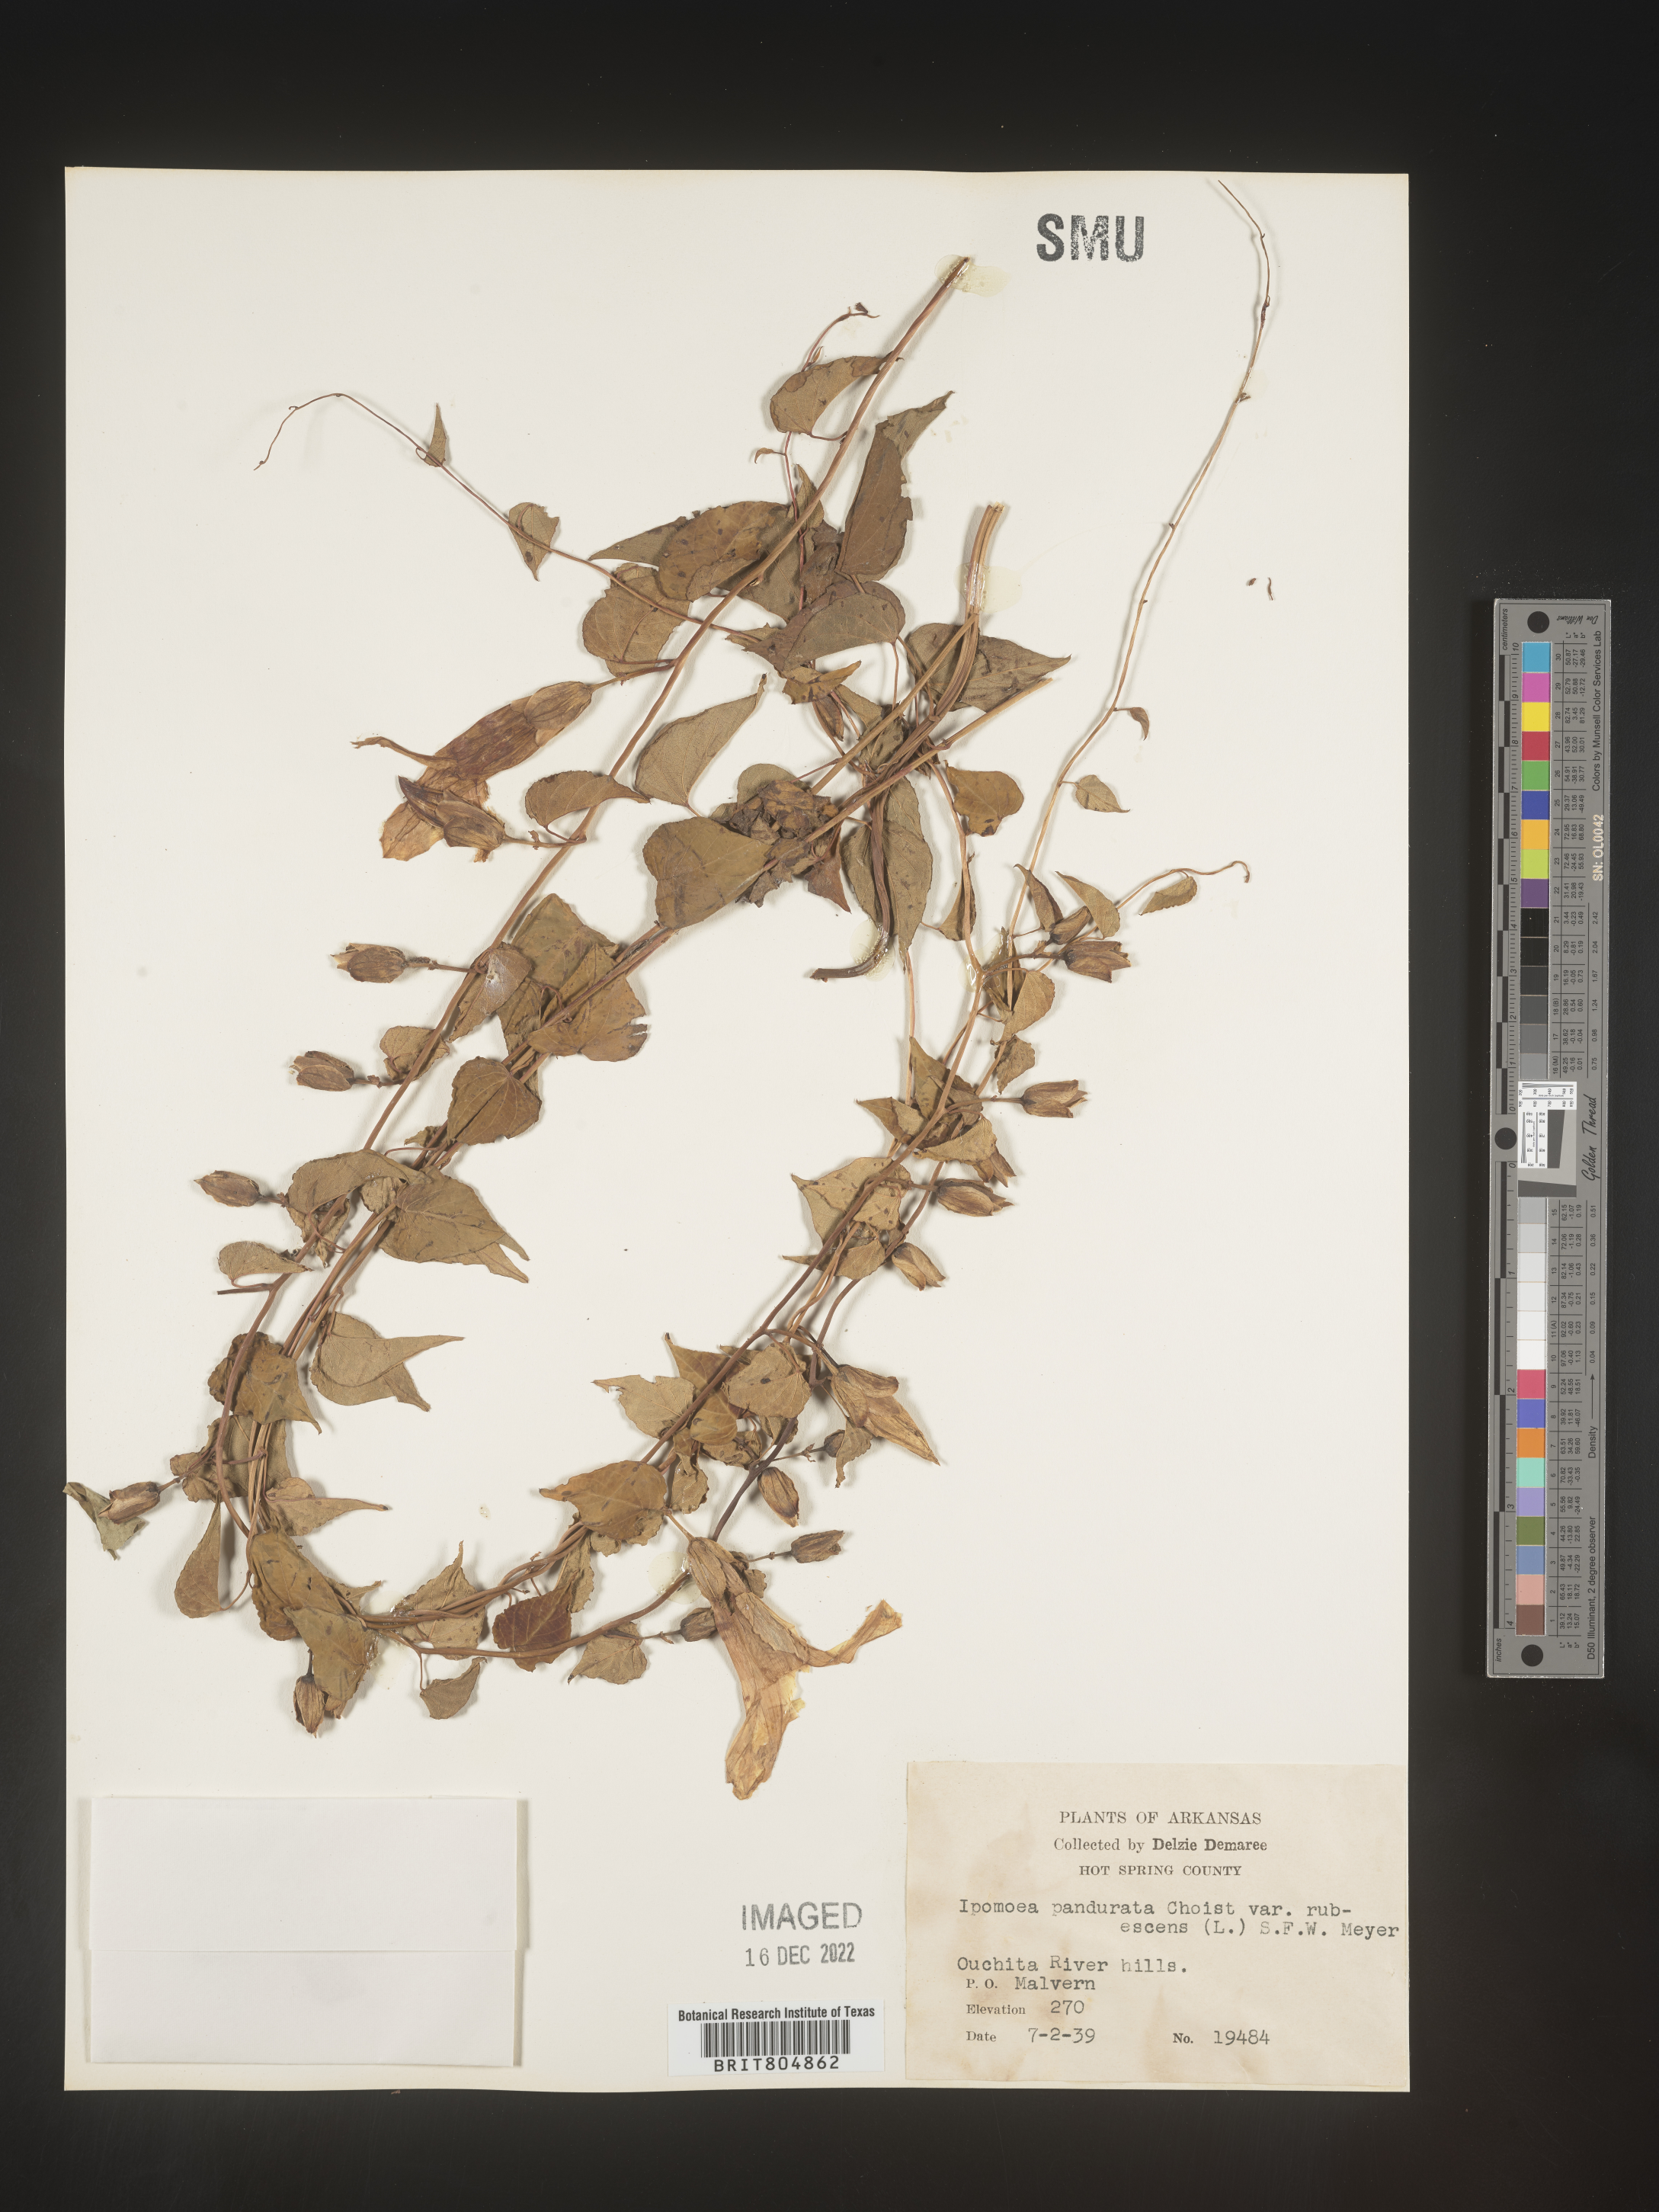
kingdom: Plantae
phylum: Tracheophyta
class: Magnoliopsida
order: Solanales
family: Convolvulaceae
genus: Ipomoea
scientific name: Ipomoea pandurata
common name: Man-of-the-earth
